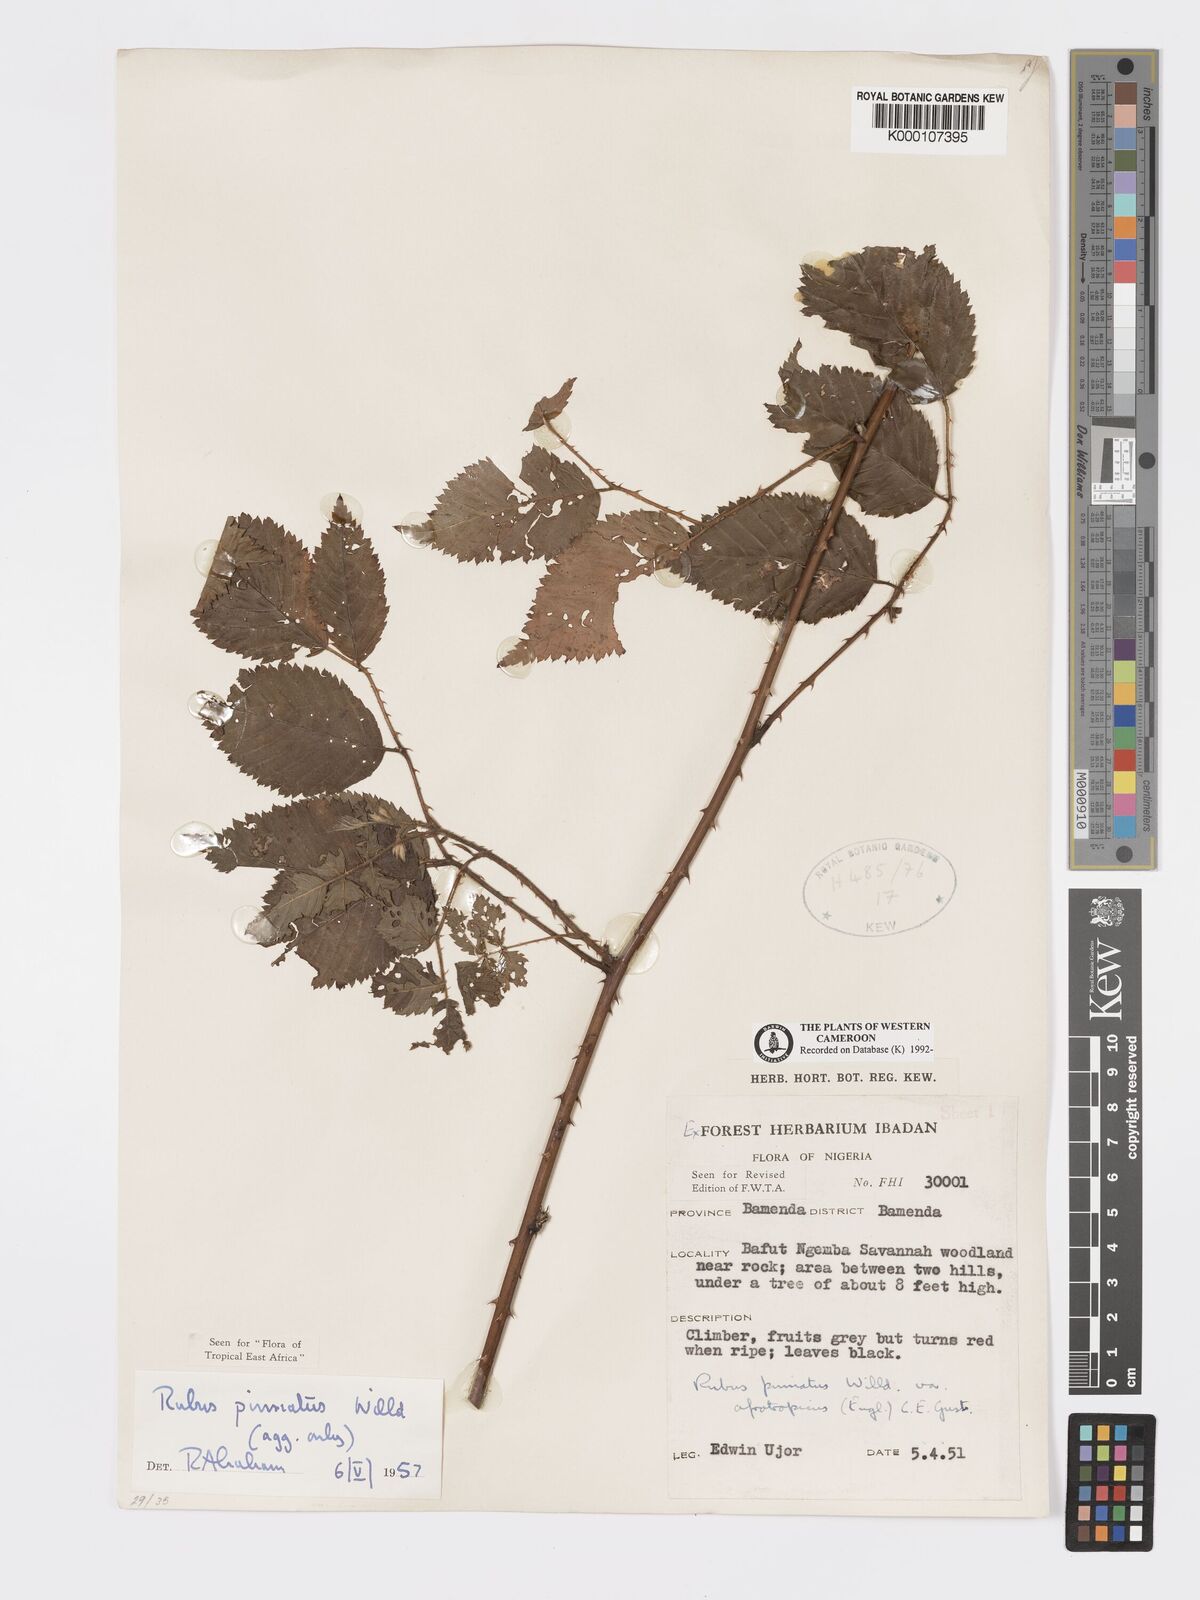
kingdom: Plantae
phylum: Tracheophyta
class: Magnoliopsida
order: Rosales
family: Rosaceae
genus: Rubus
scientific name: Rubus pinnatus
